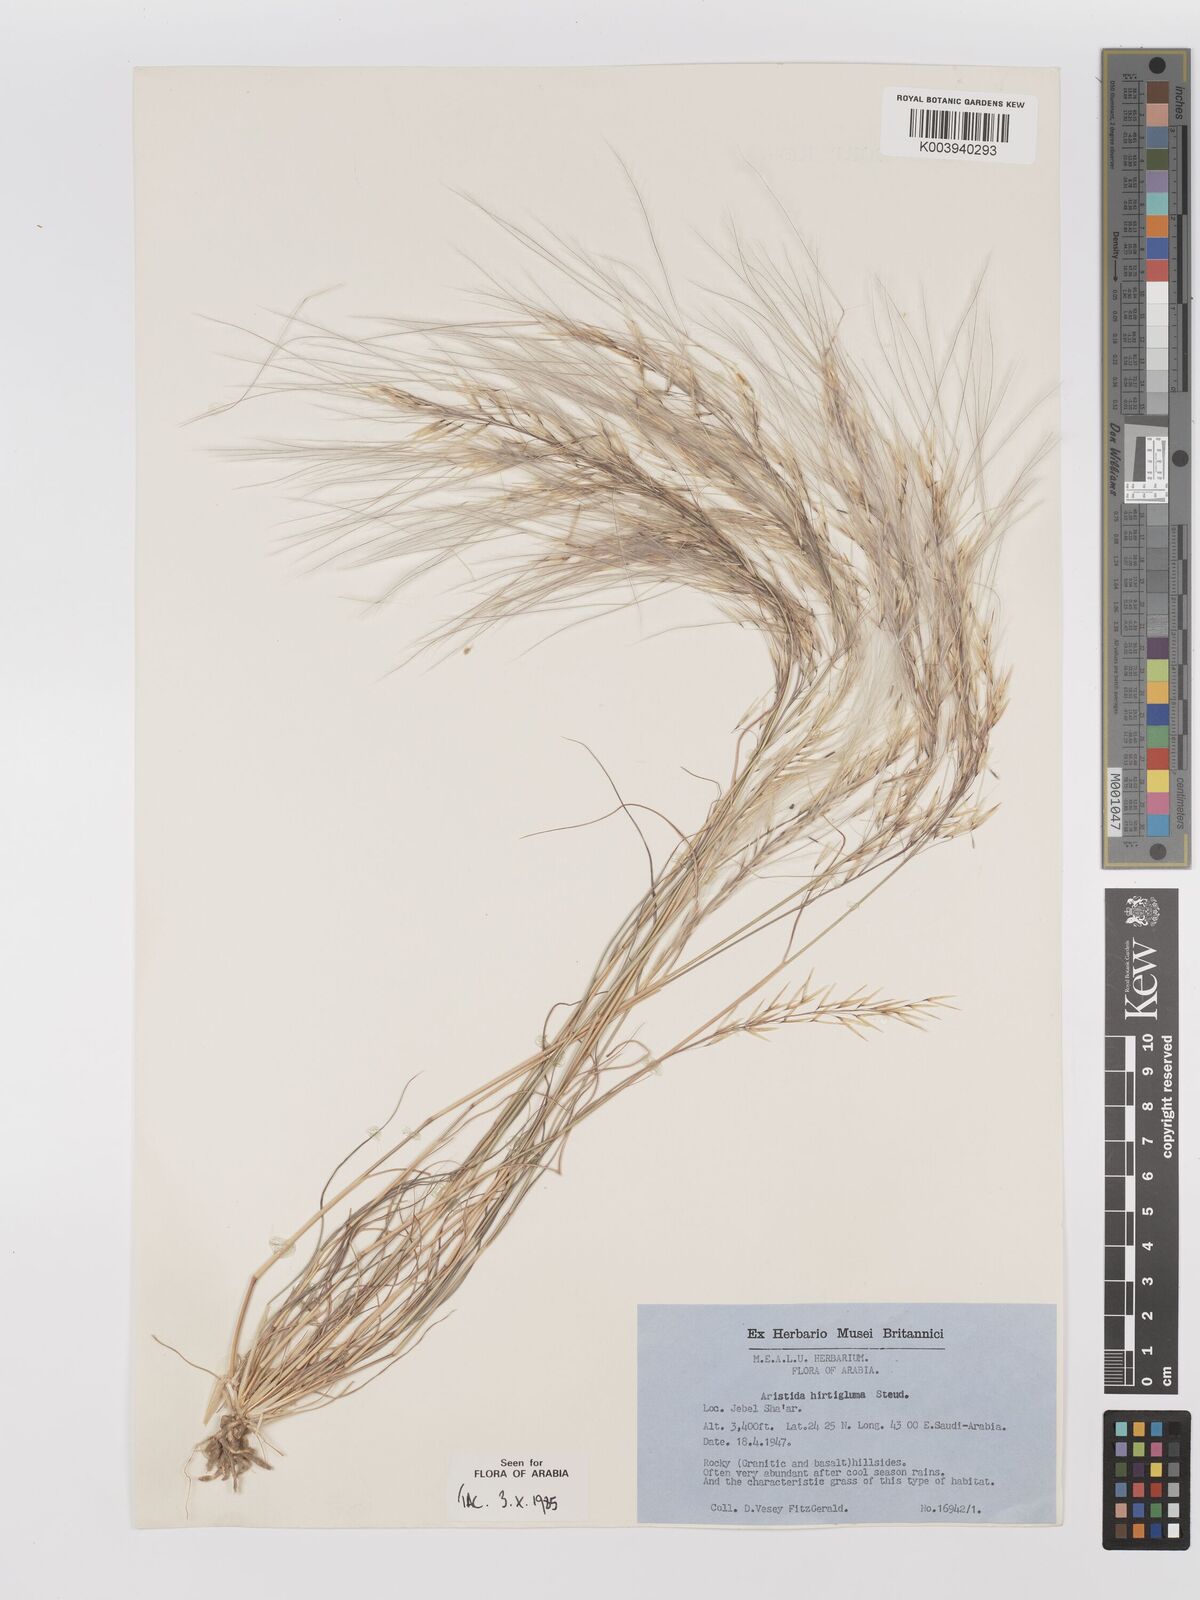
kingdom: Plantae
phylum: Tracheophyta
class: Liliopsida
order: Poales
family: Poaceae
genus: Stipagrostis
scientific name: Stipagrostis hirtigluma
